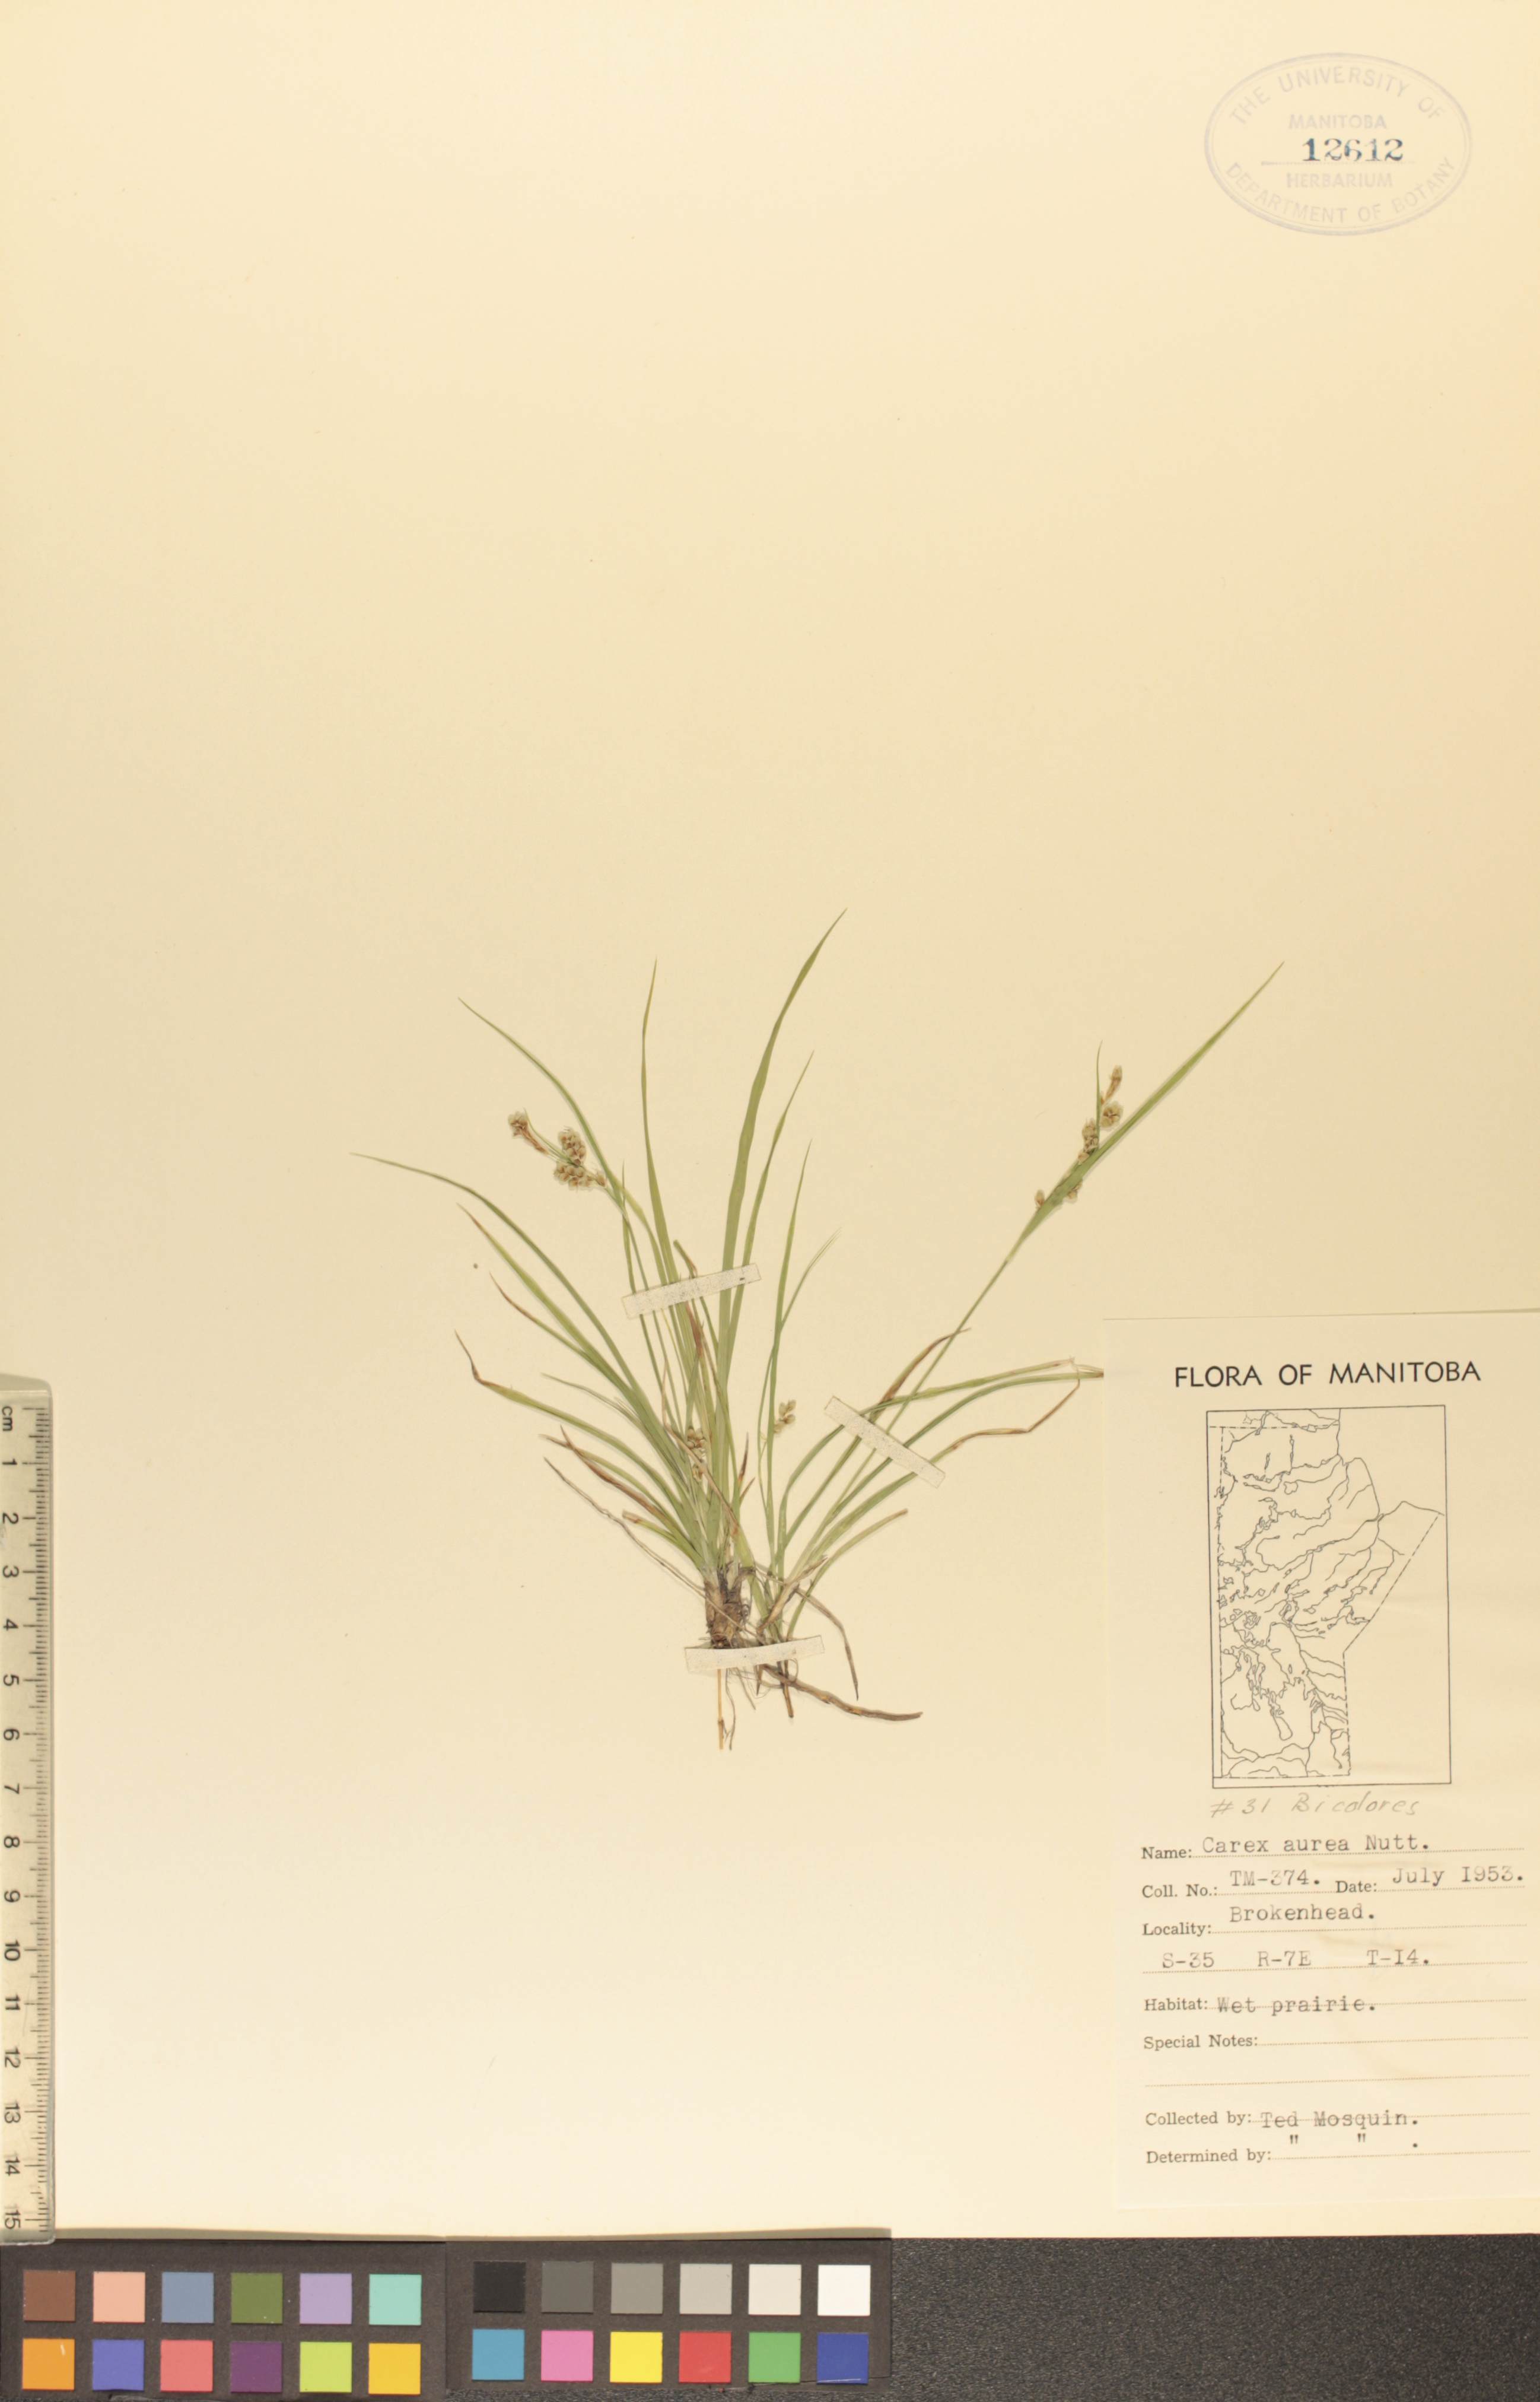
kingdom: Plantae
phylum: Tracheophyta
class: Liliopsida
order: Poales
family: Cyperaceae
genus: Carex
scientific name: Carex aurea
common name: Golden sedge
